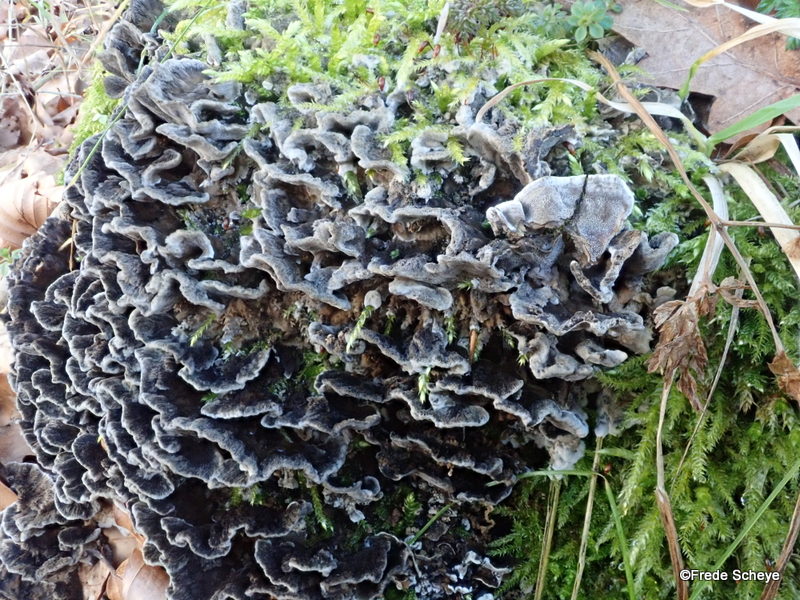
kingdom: Fungi
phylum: Basidiomycota
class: Agaricomycetes
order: Polyporales
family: Phanerochaetaceae
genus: Bjerkandera
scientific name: Bjerkandera adusta
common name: sveden sodporesvamp
